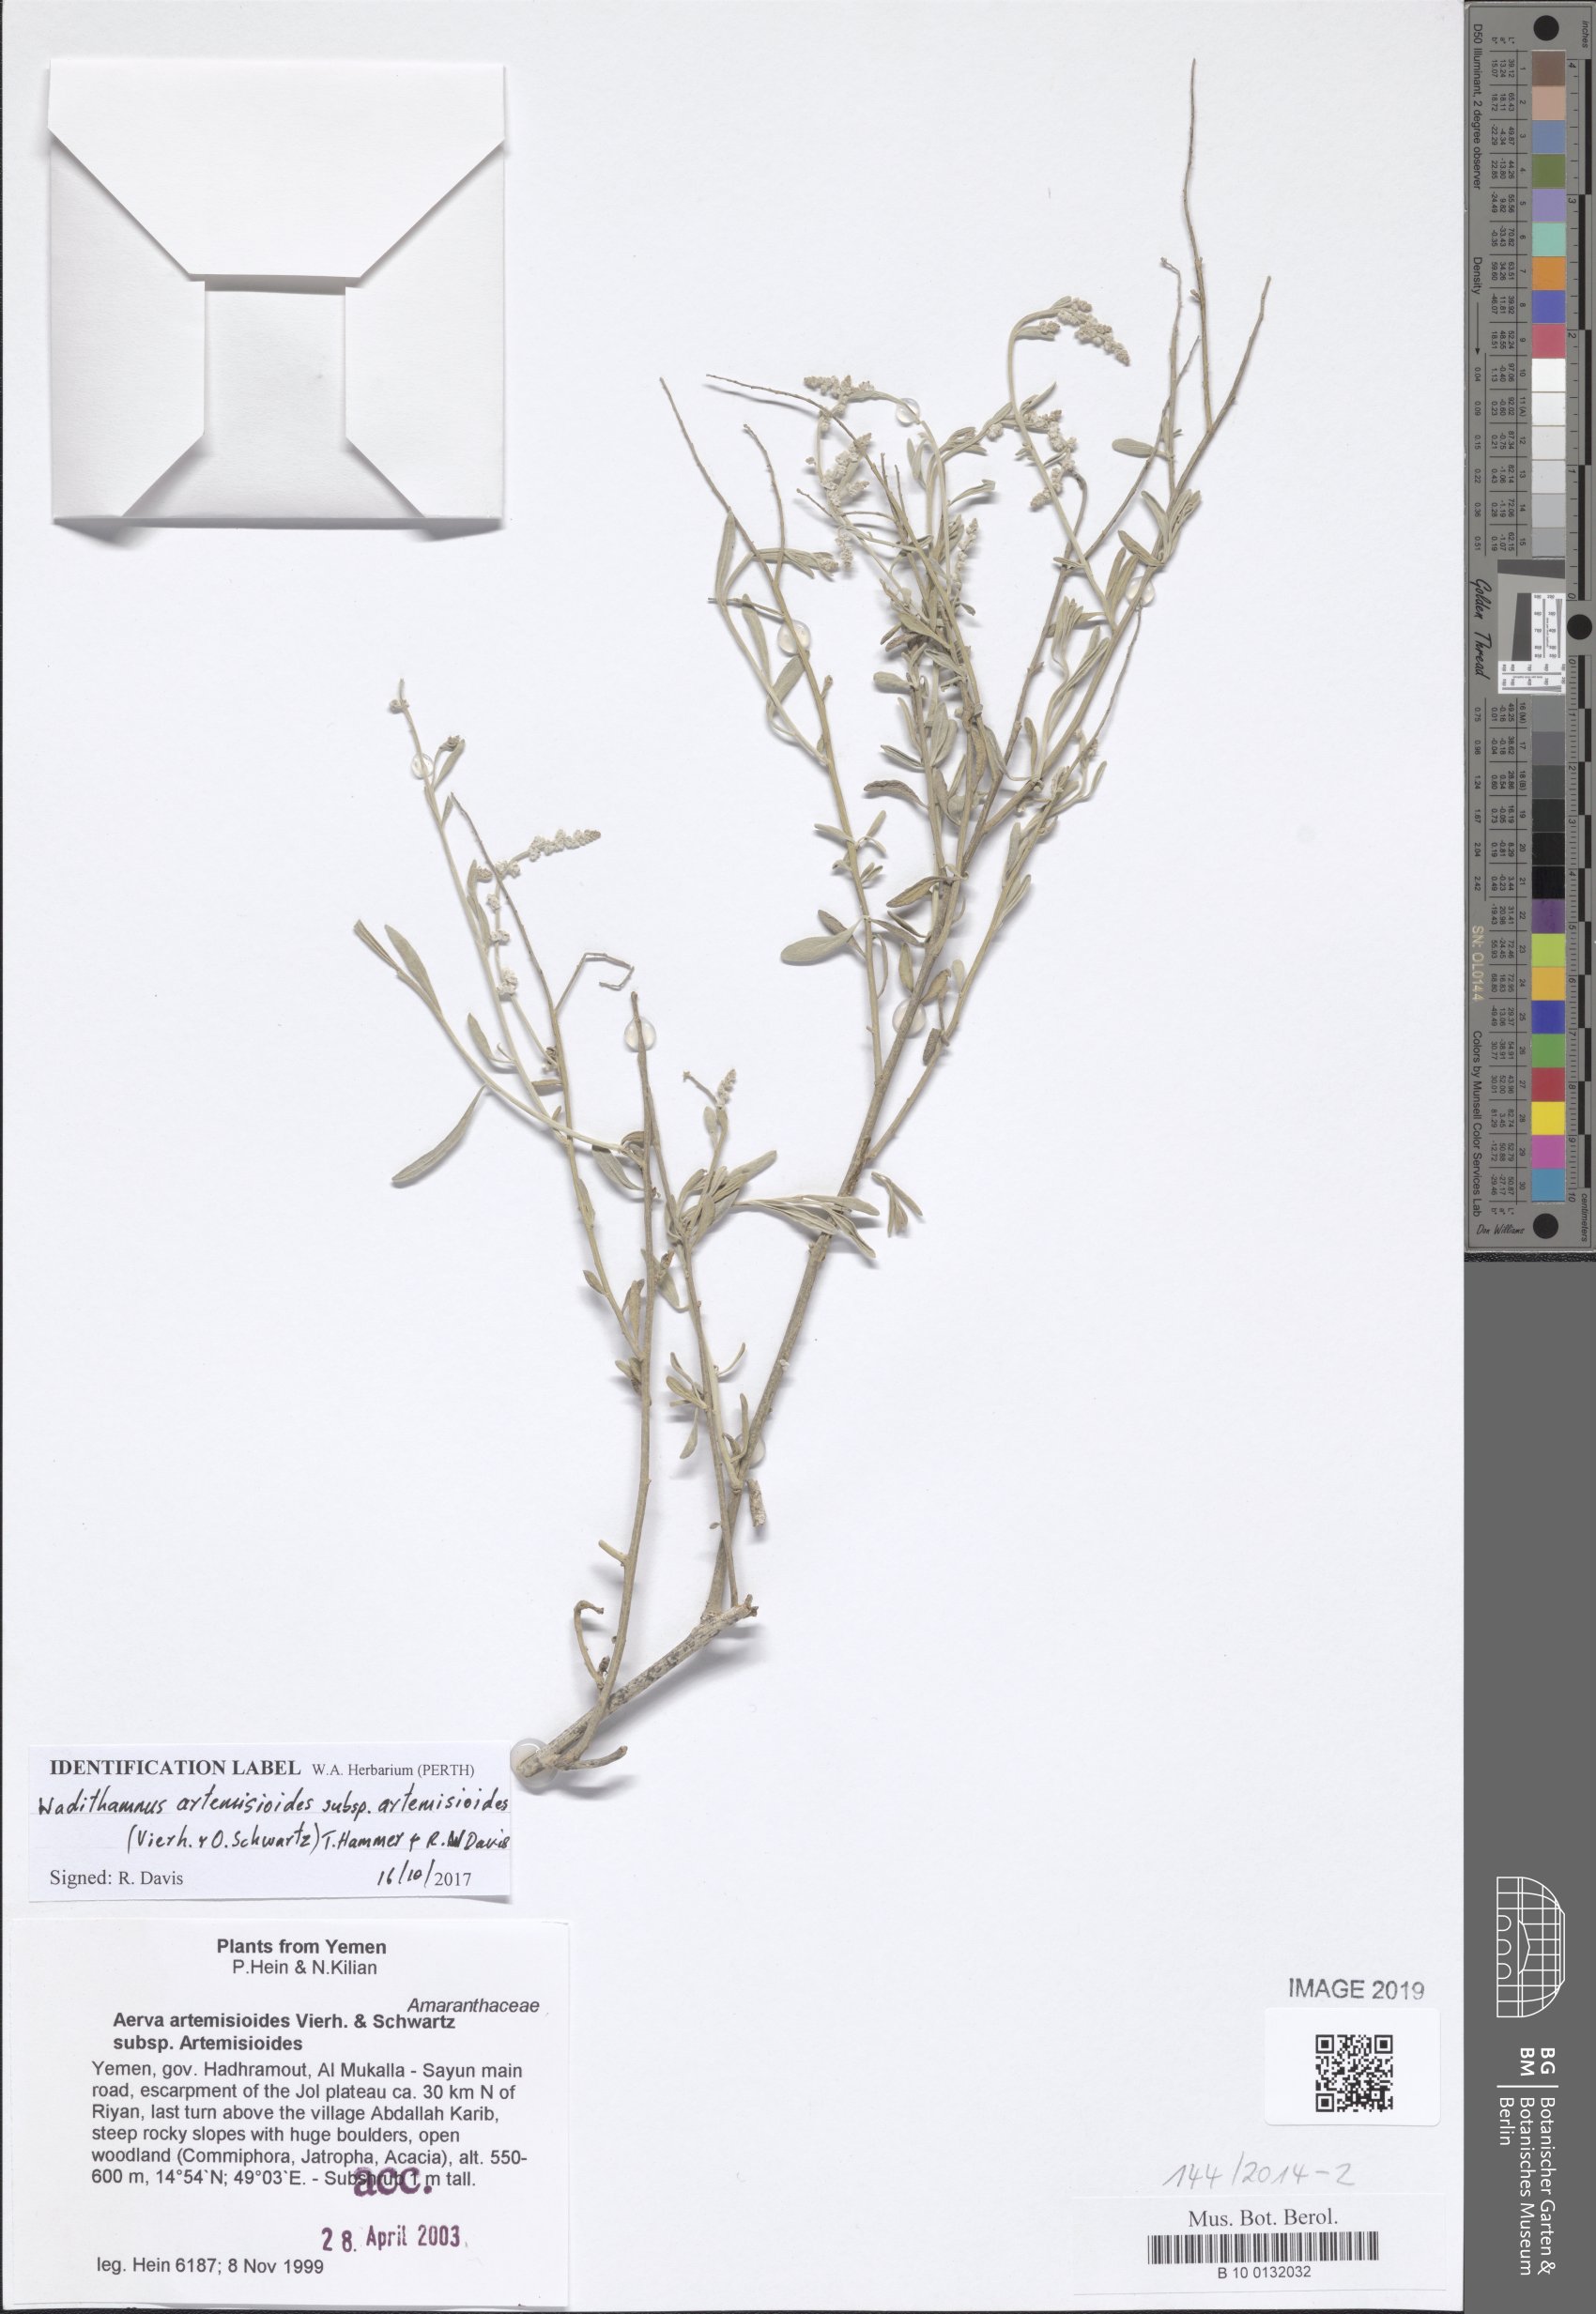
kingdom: Plantae
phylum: Tracheophyta
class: Magnoliopsida
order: Caryophyllales
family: Amaranthaceae
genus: Wadithamnus
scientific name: Wadithamnus artemisioides
